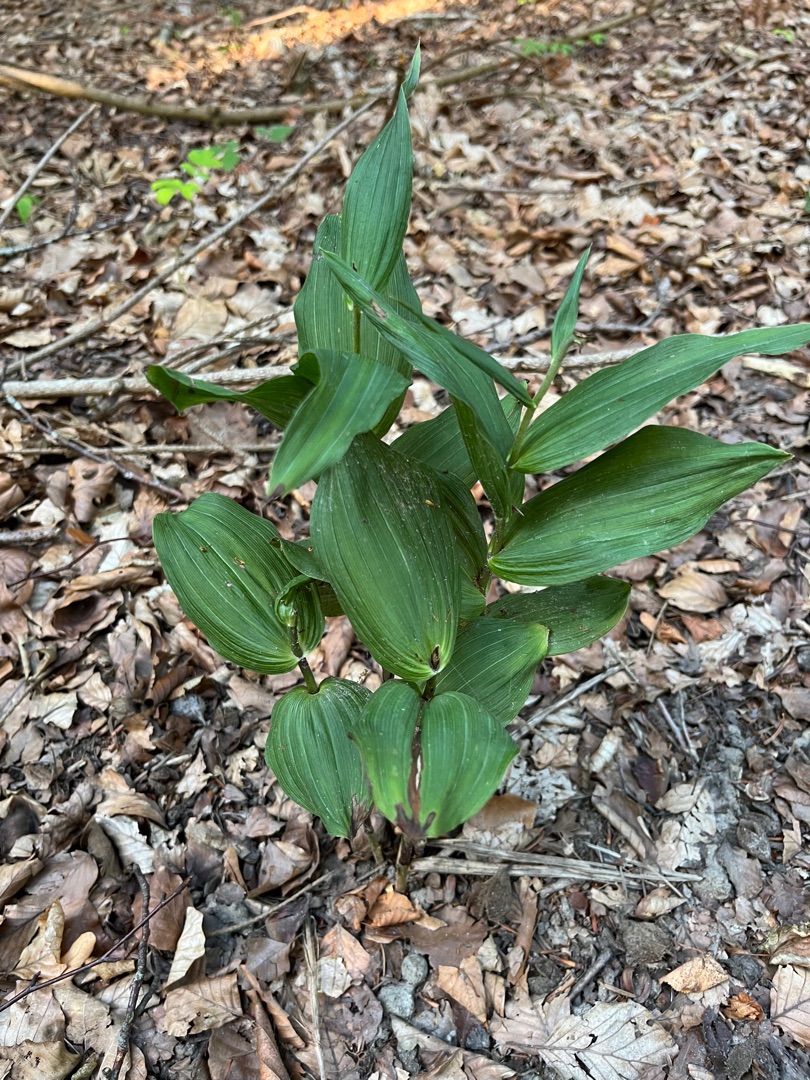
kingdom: Plantae
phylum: Tracheophyta
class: Liliopsida
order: Asparagales
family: Orchidaceae
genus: Epipactis
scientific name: Epipactis helleborine
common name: Skov-hullæbe
